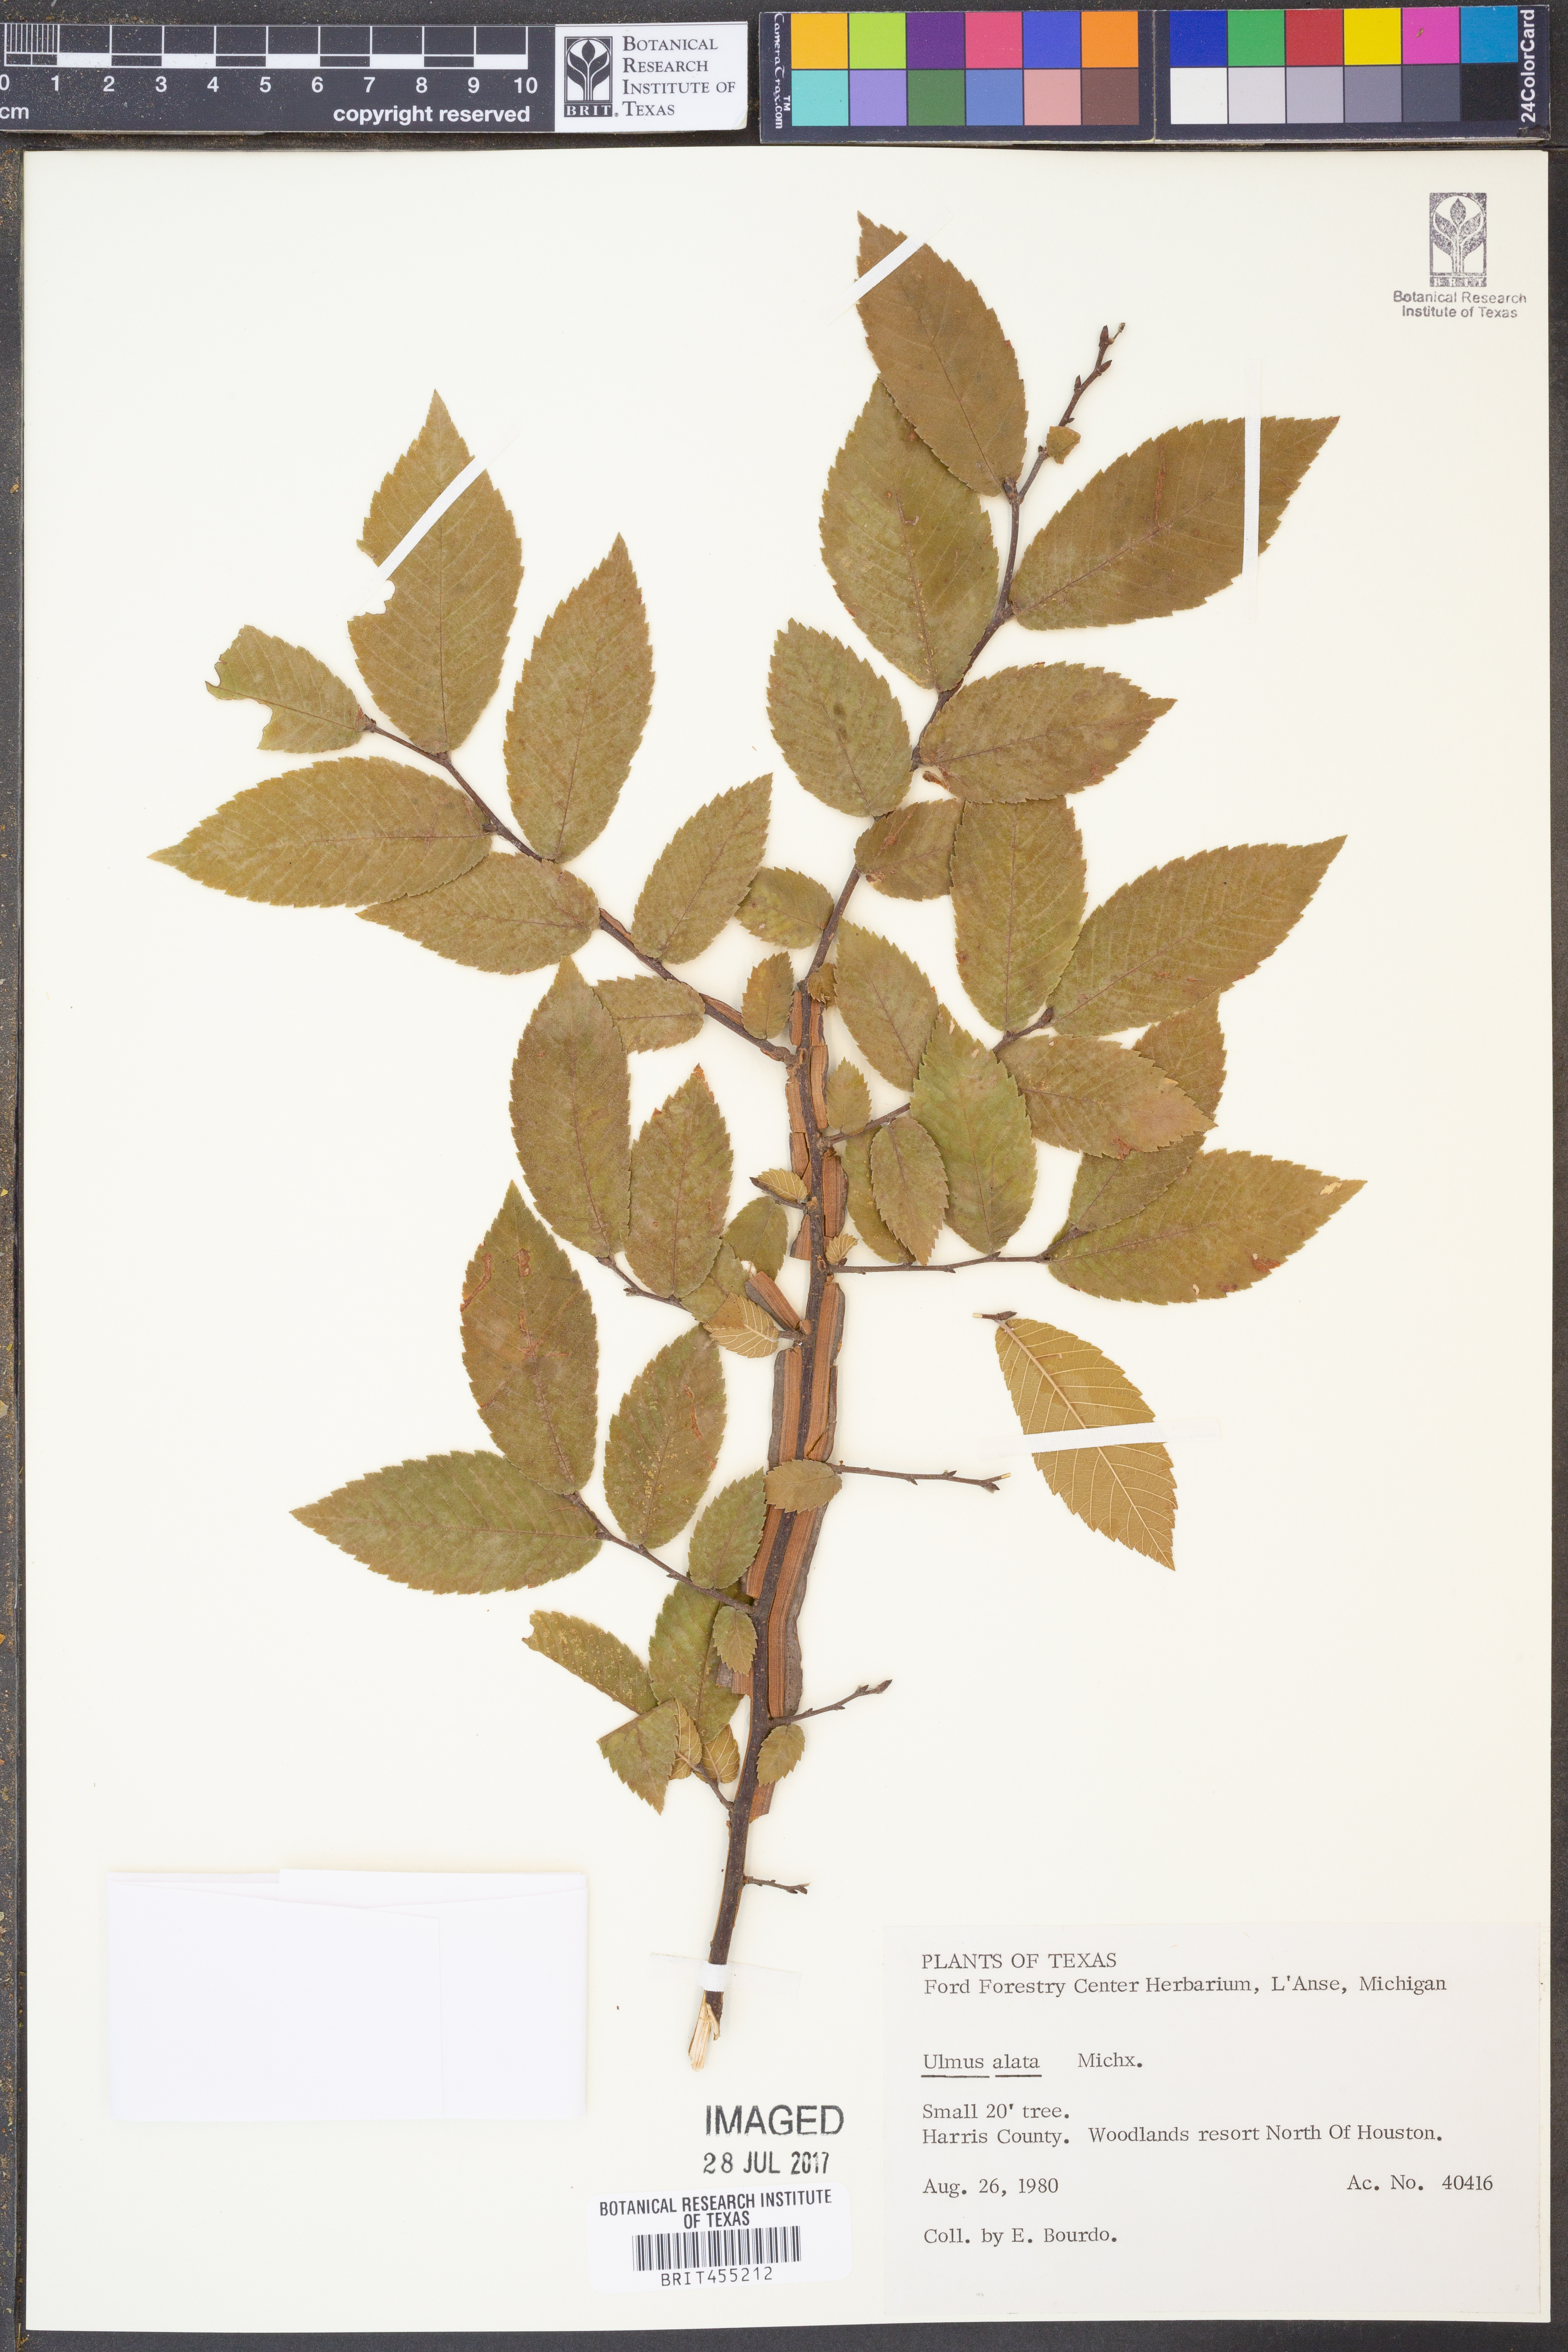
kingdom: Plantae
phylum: Tracheophyta
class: Magnoliopsida
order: Rosales
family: Ulmaceae
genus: Ulmus
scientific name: Ulmus alata
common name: Winged elm
